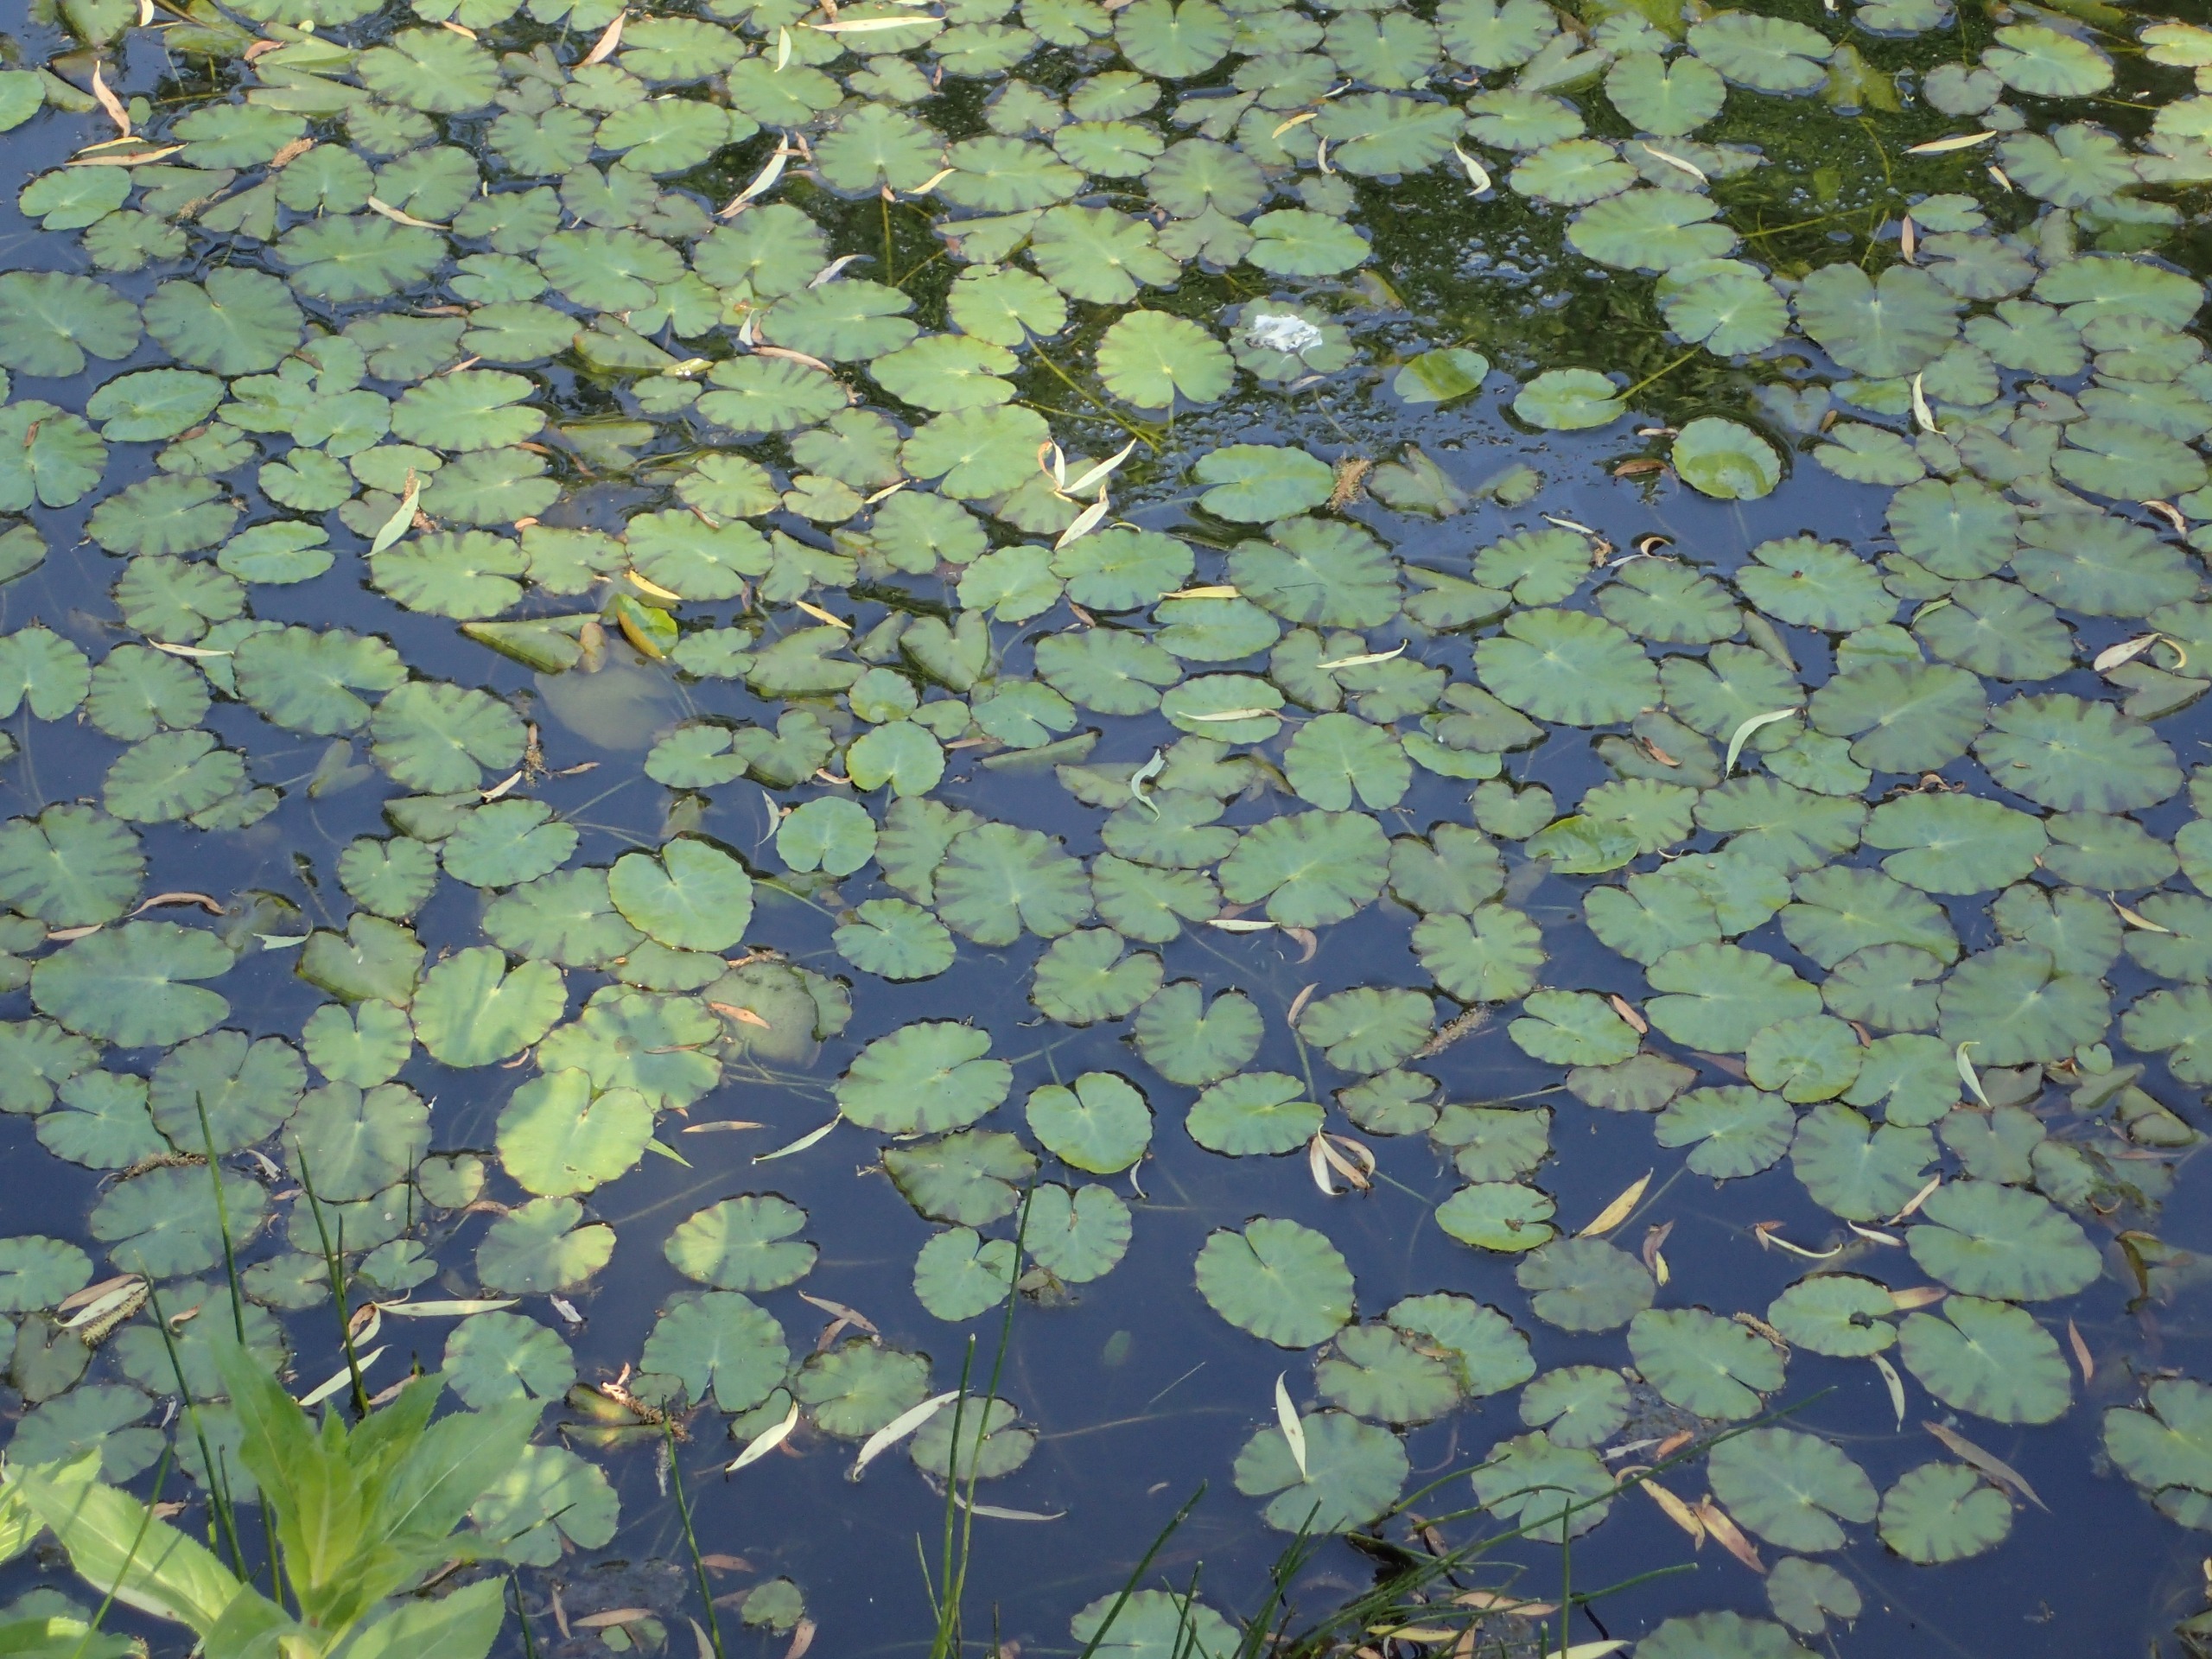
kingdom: Plantae
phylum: Tracheophyta
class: Magnoliopsida
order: Asterales
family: Menyanthaceae
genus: Nymphoides
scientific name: Nymphoides peltata
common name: Søblad
